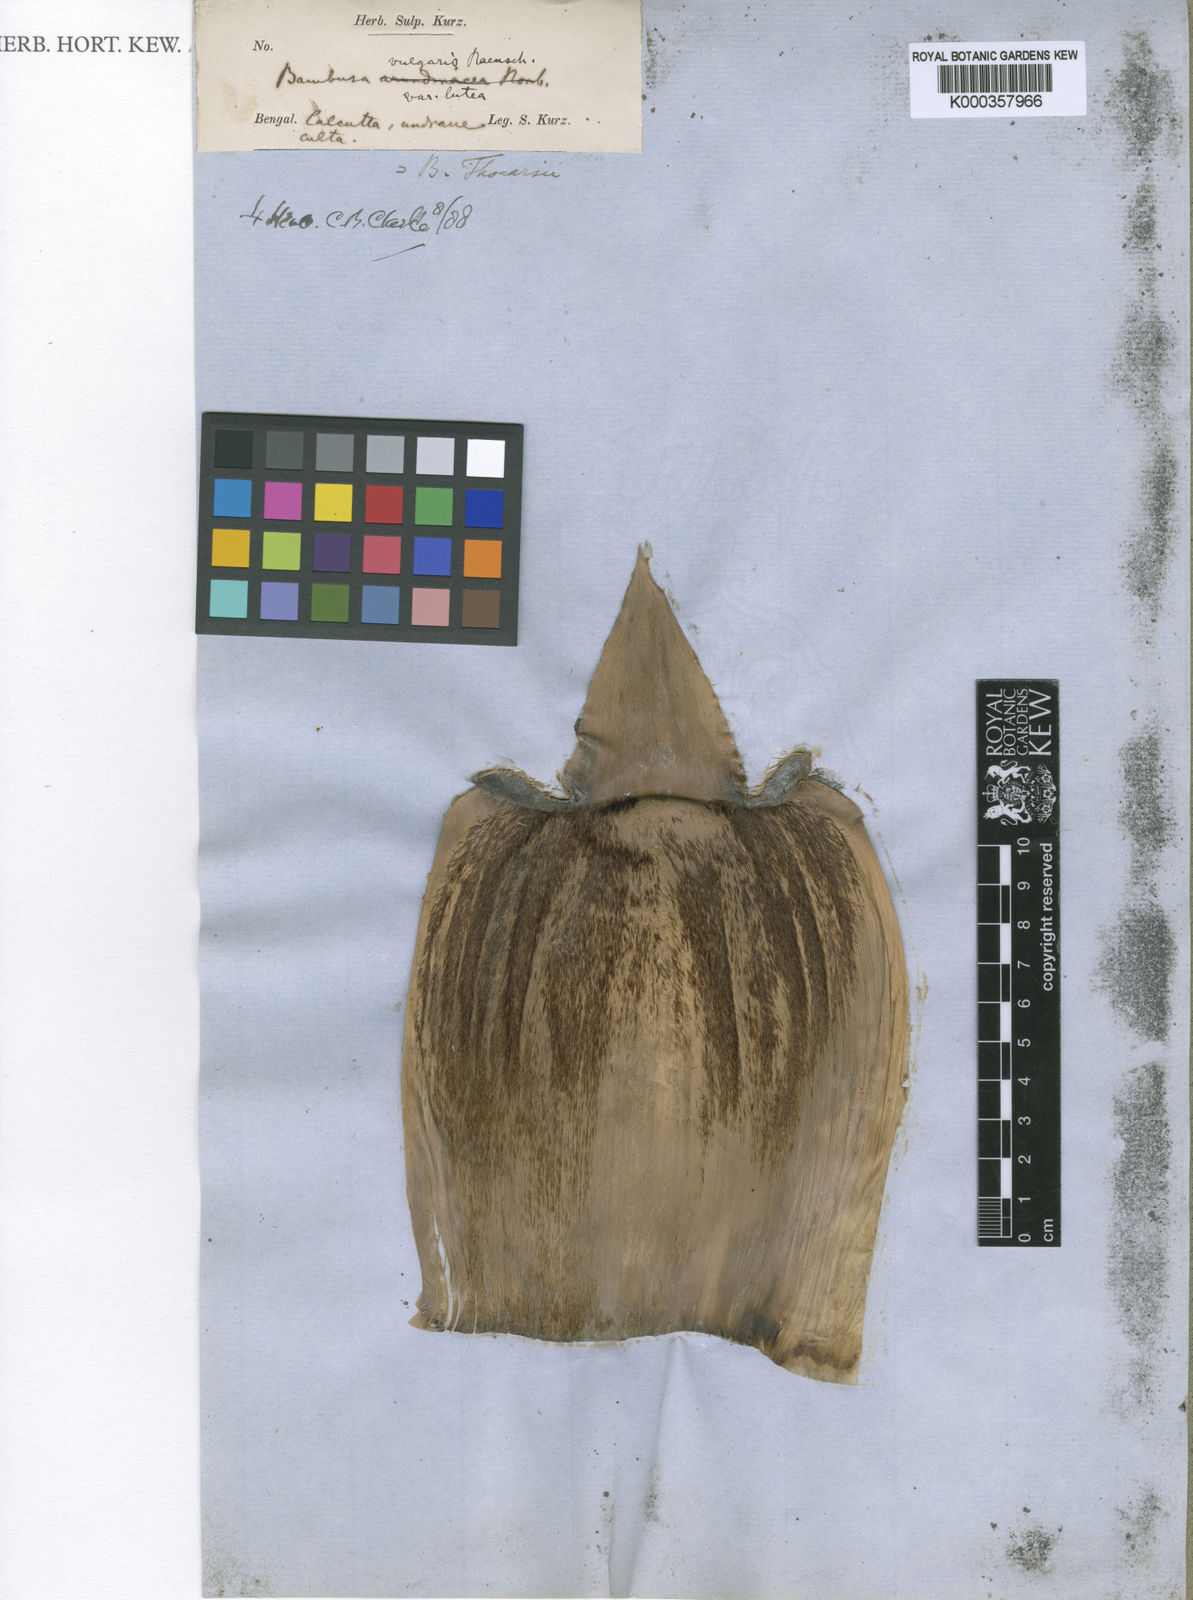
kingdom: Plantae
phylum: Tracheophyta
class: Liliopsida
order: Poales
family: Poaceae
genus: Bambusa
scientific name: Bambusa
